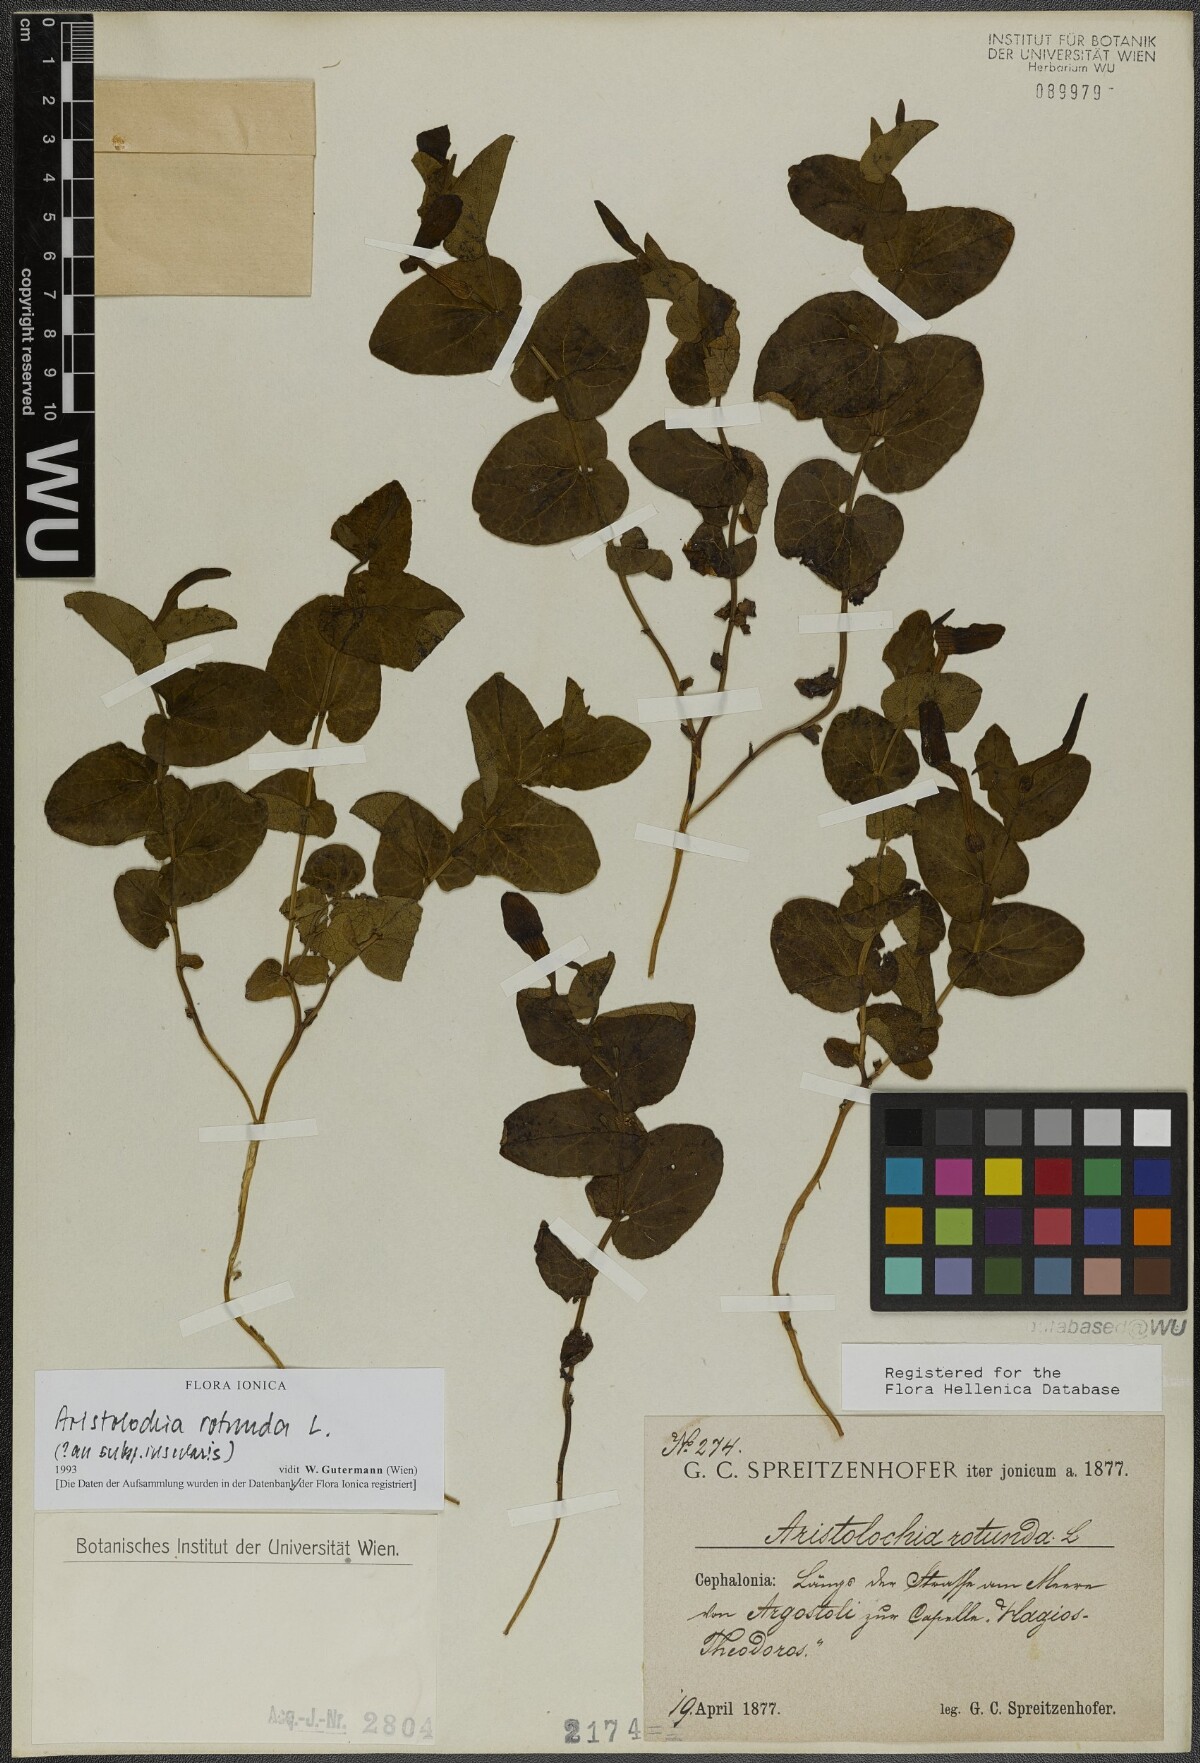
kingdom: Plantae
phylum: Tracheophyta
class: Magnoliopsida
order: Piperales
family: Aristolochiaceae
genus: Aristolochia
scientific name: Aristolochia rotunda
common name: Smearwort
